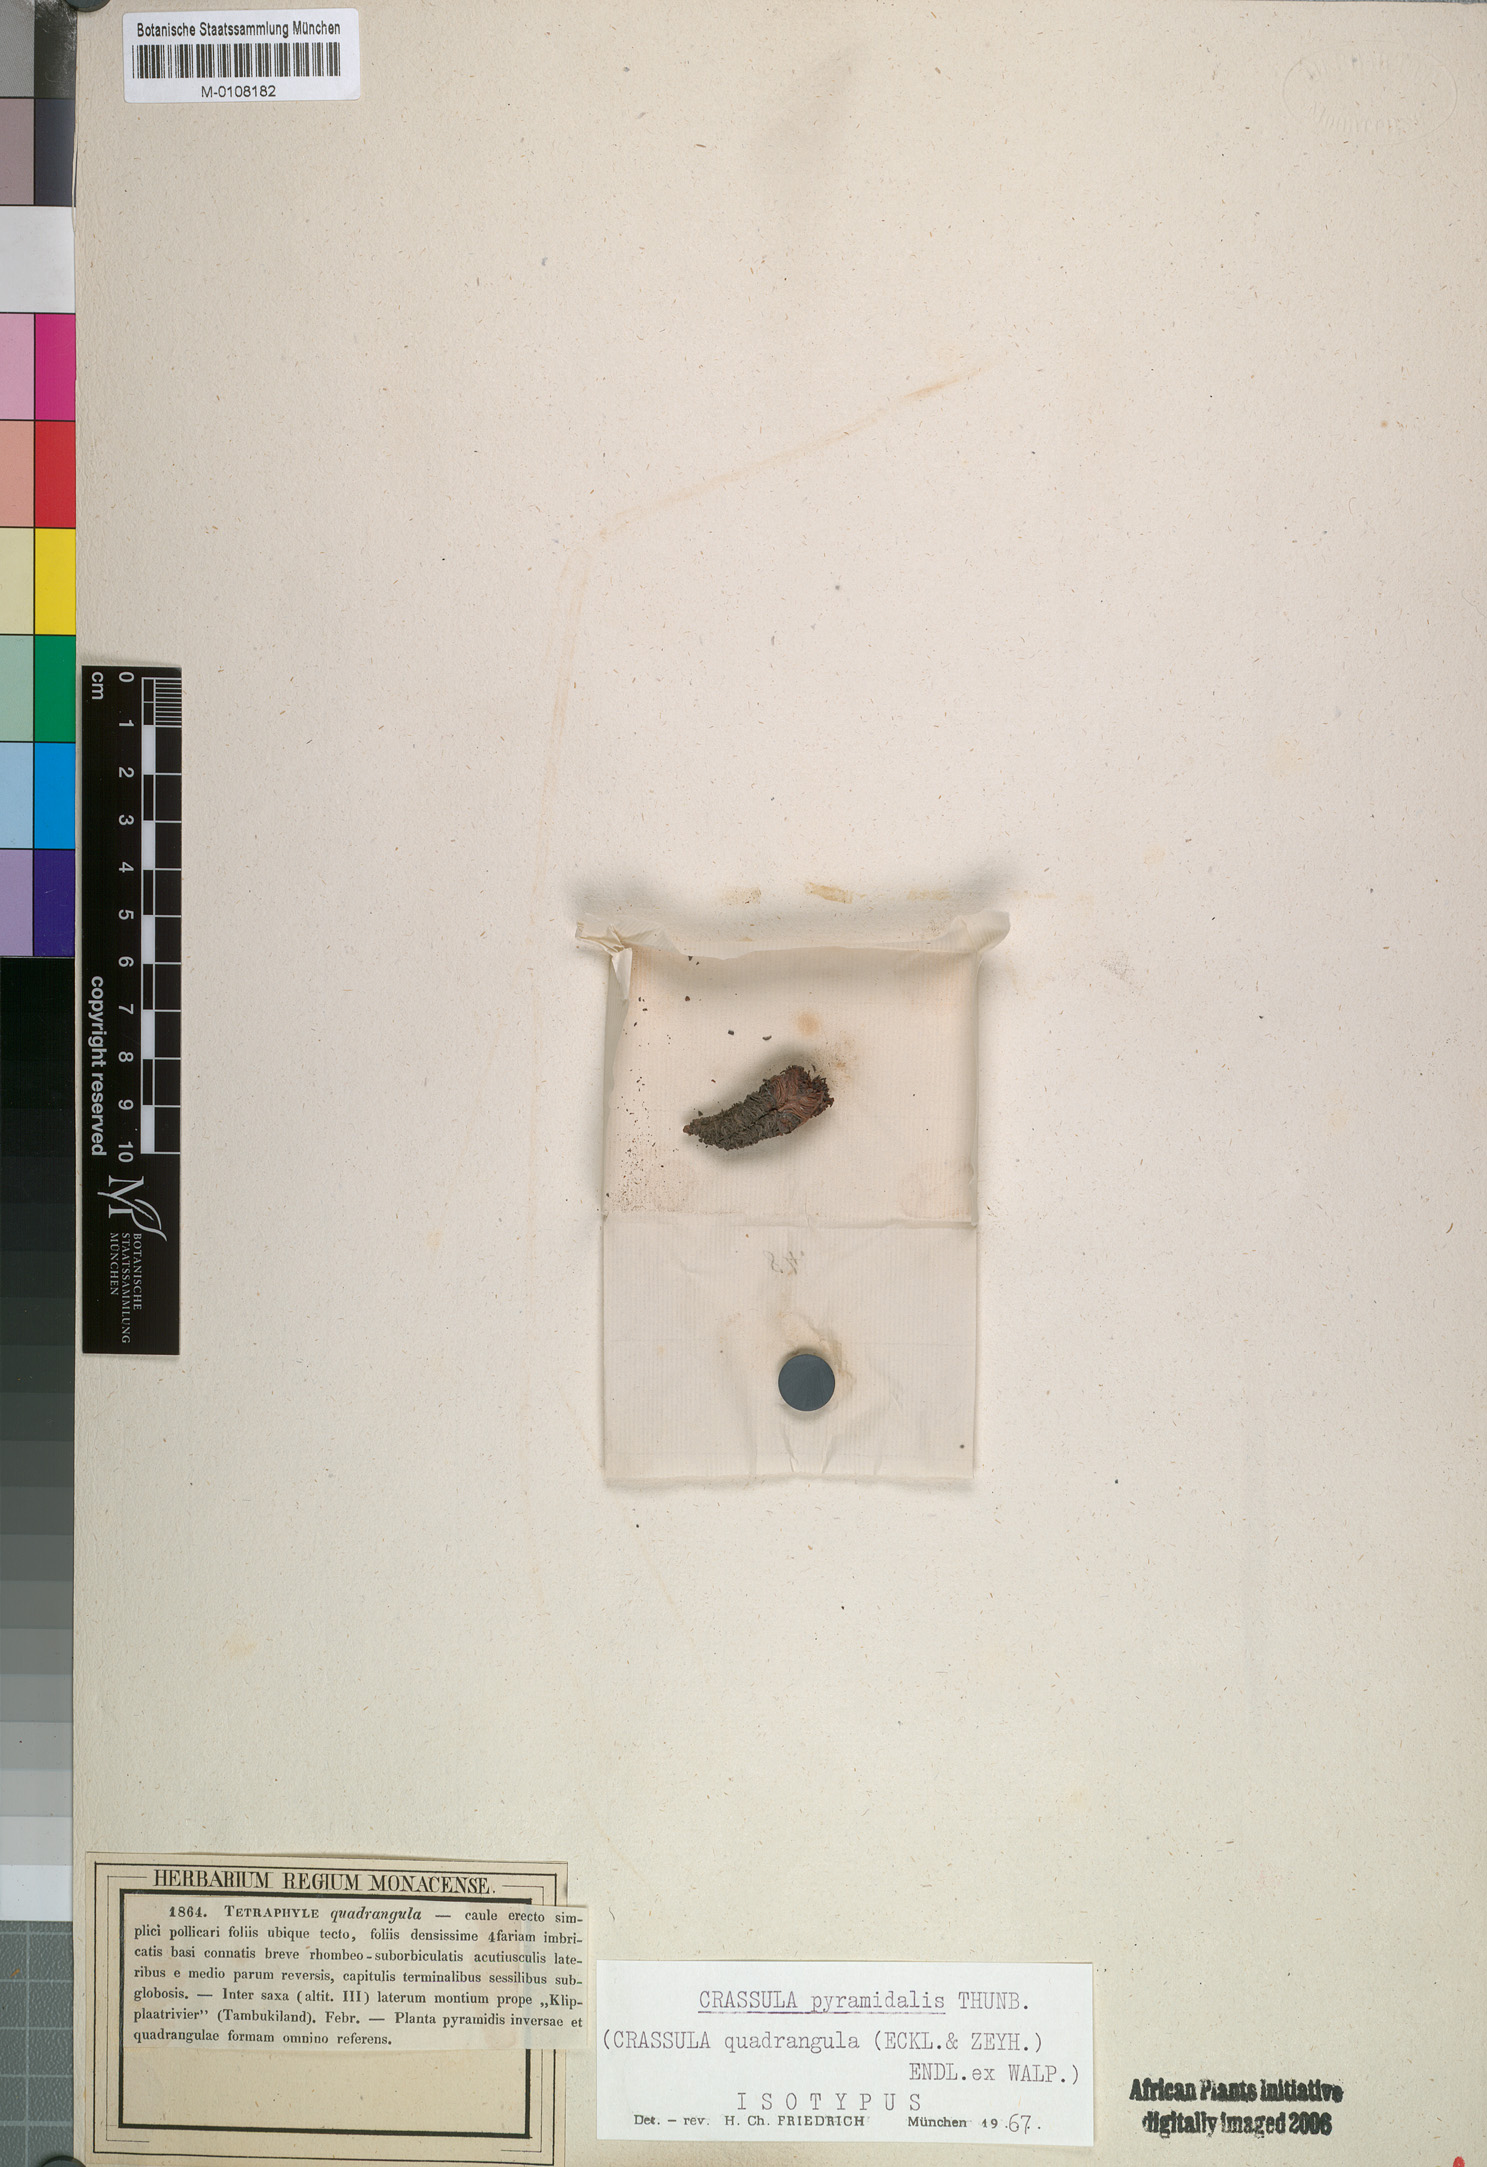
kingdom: Plantae
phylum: Tracheophyta
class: Magnoliopsida
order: Saxifragales
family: Crassulaceae
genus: Crassula
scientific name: Crassula pyramidalis
